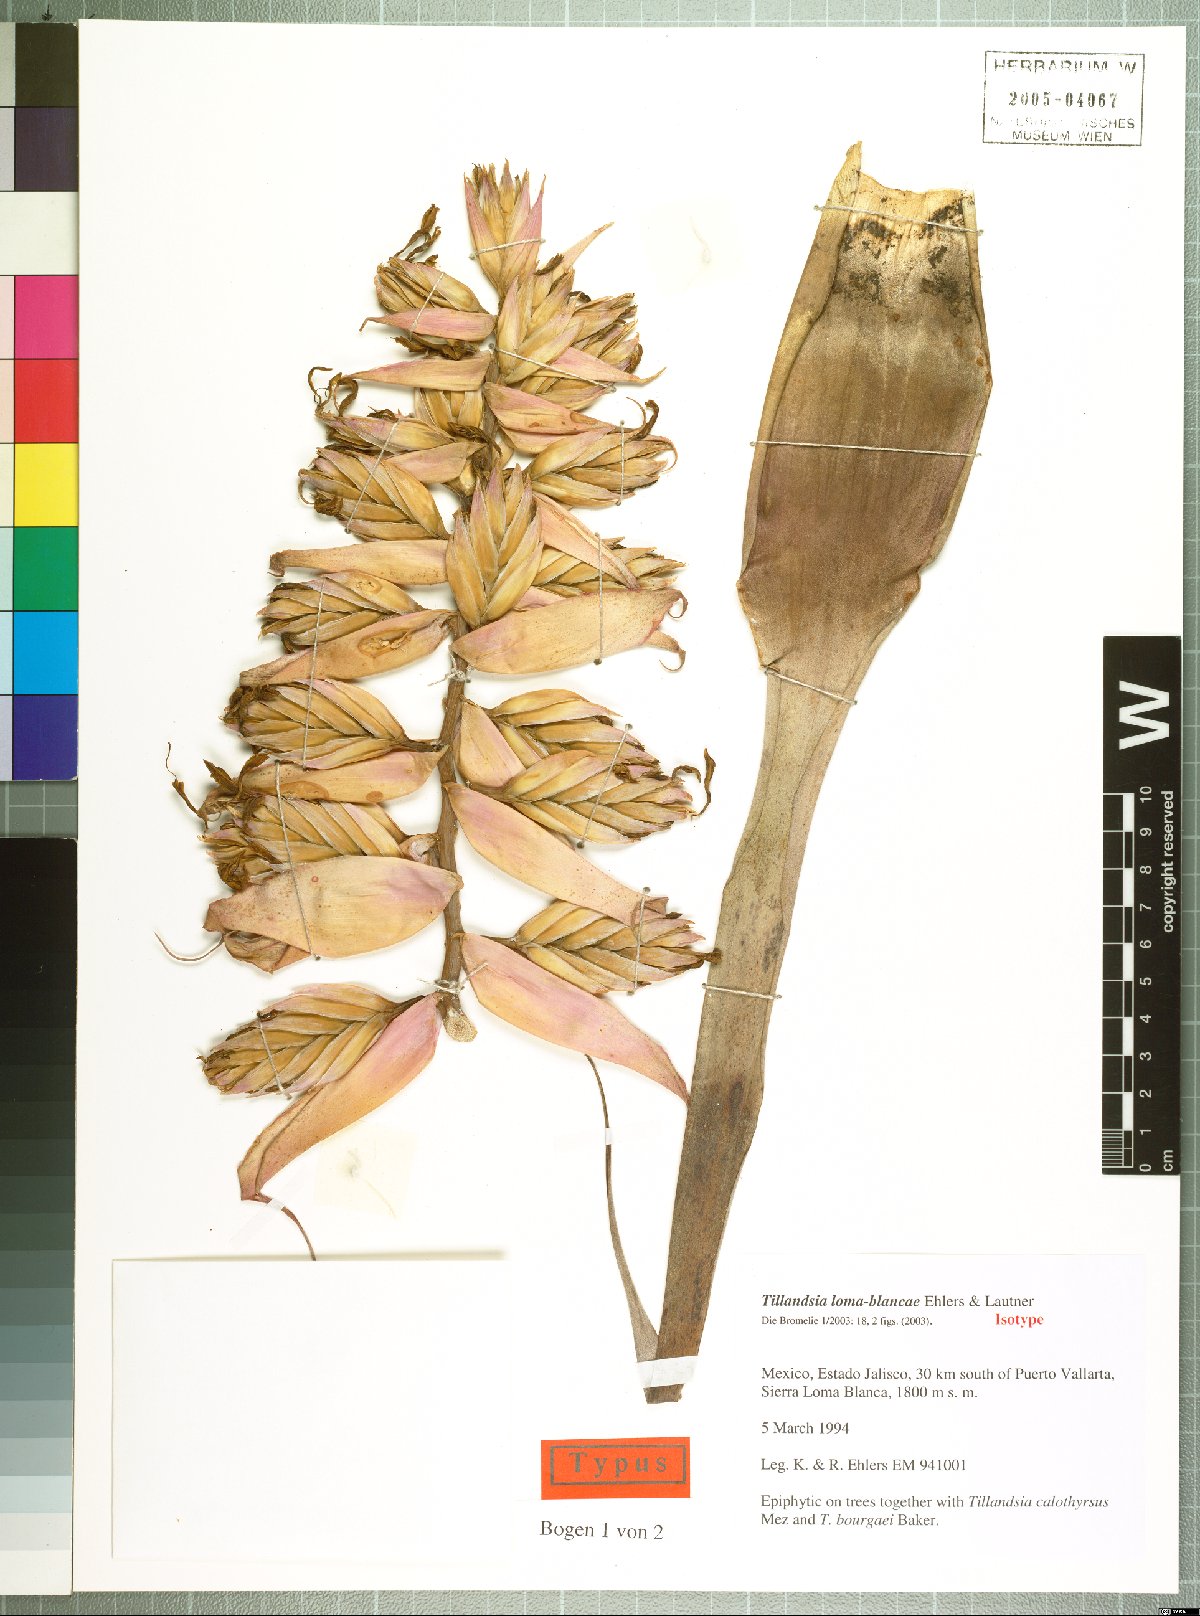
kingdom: Plantae
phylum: Tracheophyta
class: Liliopsida
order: Poales
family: Bromeliaceae
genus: Tillandsia
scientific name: Tillandsia loma-blancae
